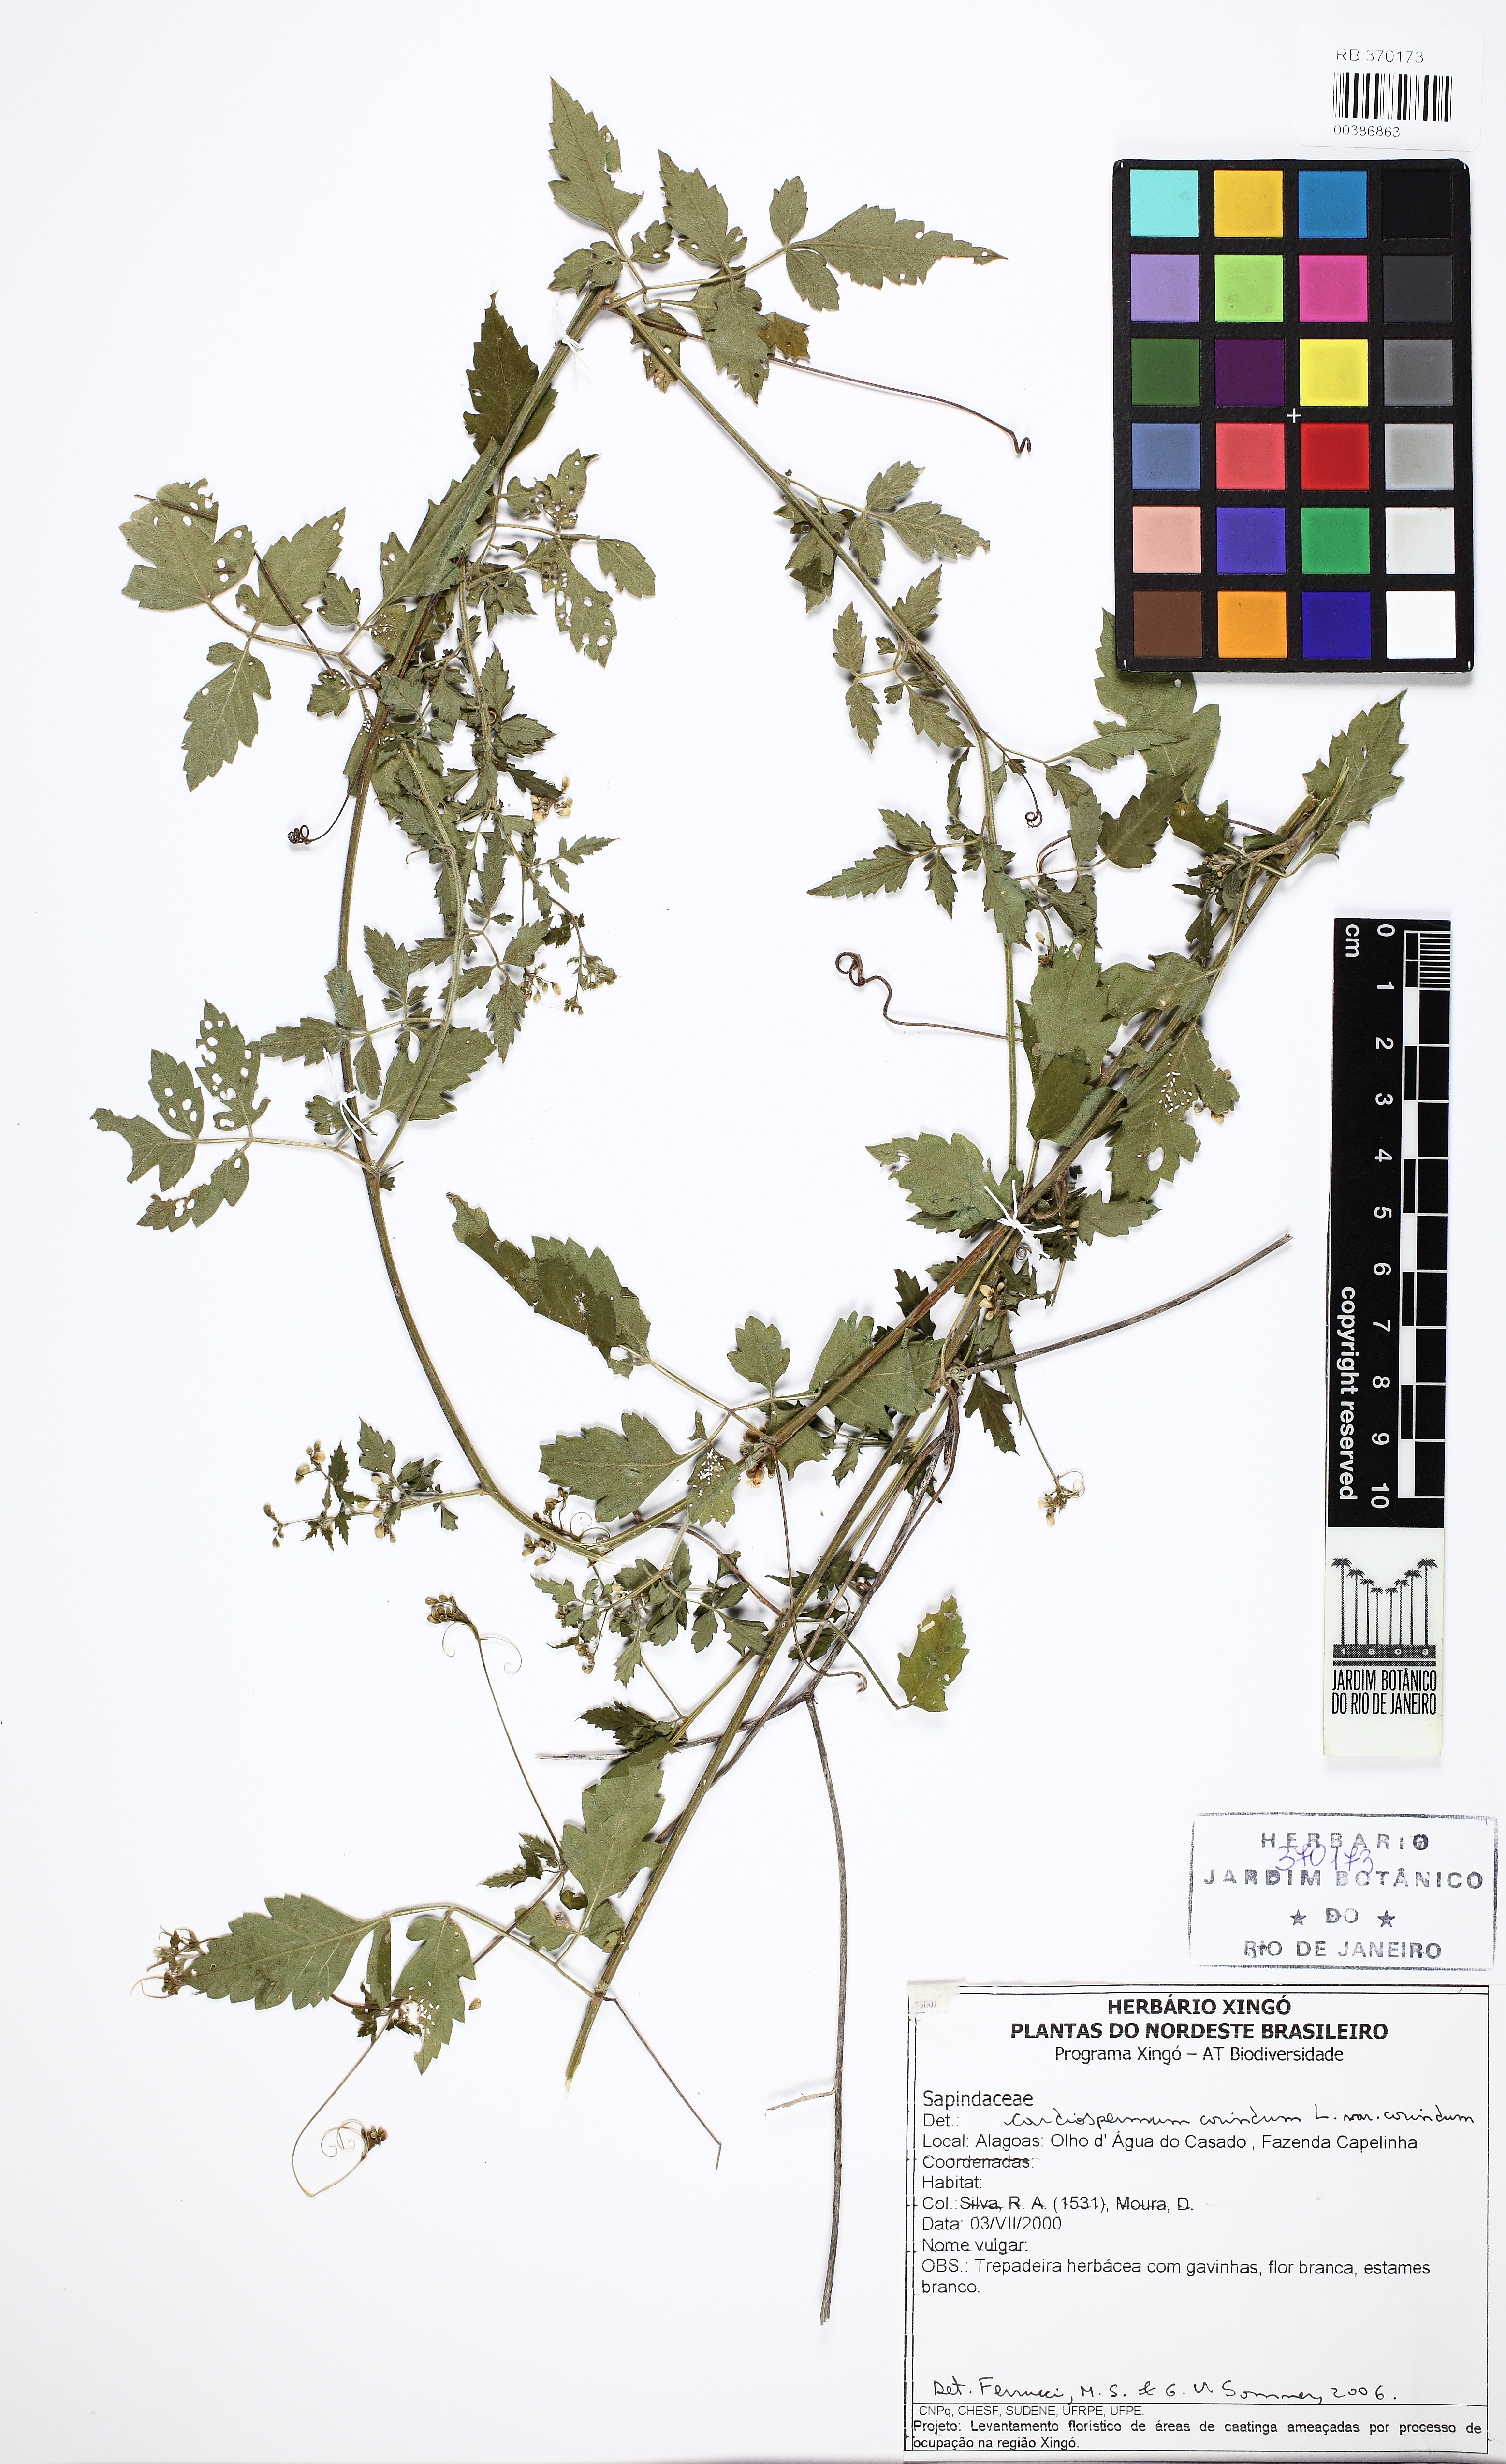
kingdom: Plantae
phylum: Tracheophyta
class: Magnoliopsida
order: Sapindales
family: Sapindaceae
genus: Cardiospermum
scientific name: Cardiospermum corindum
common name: Faux persil
